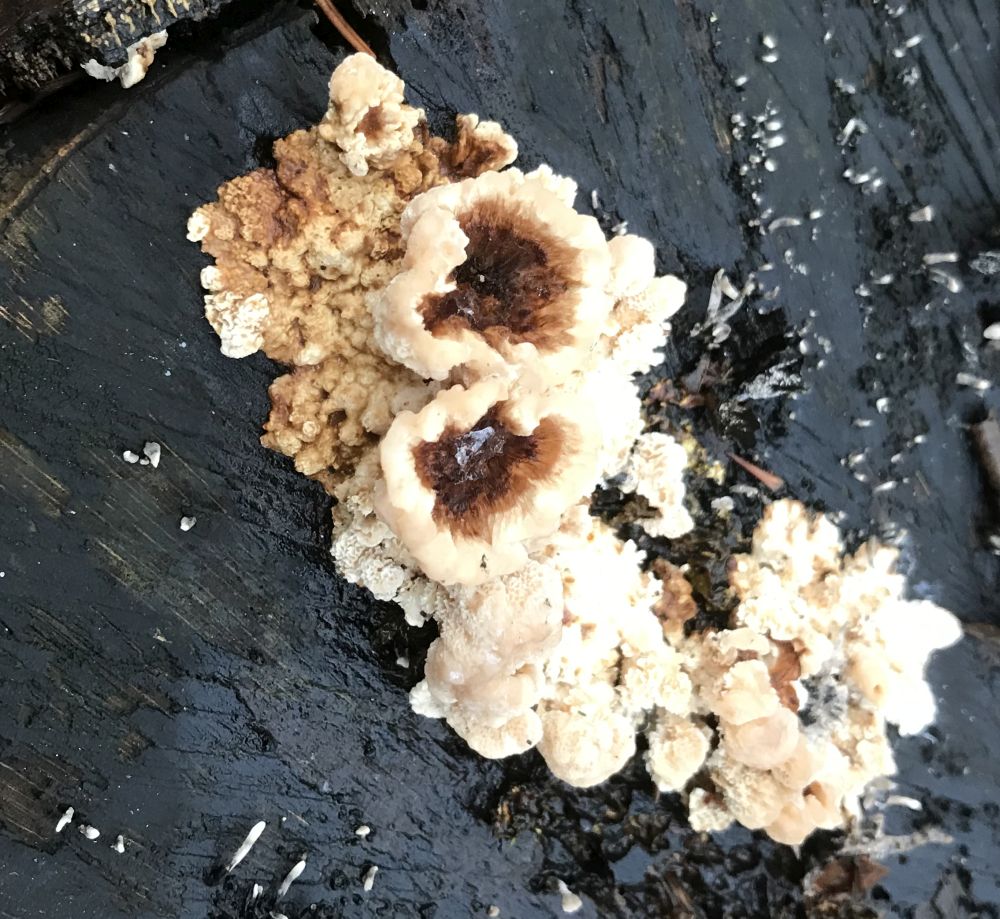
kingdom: Fungi
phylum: Basidiomycota
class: Agaricomycetes
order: Polyporales
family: Polyporaceae
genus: Trametes
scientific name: Trametes versicolor
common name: broget læderporesvamp
